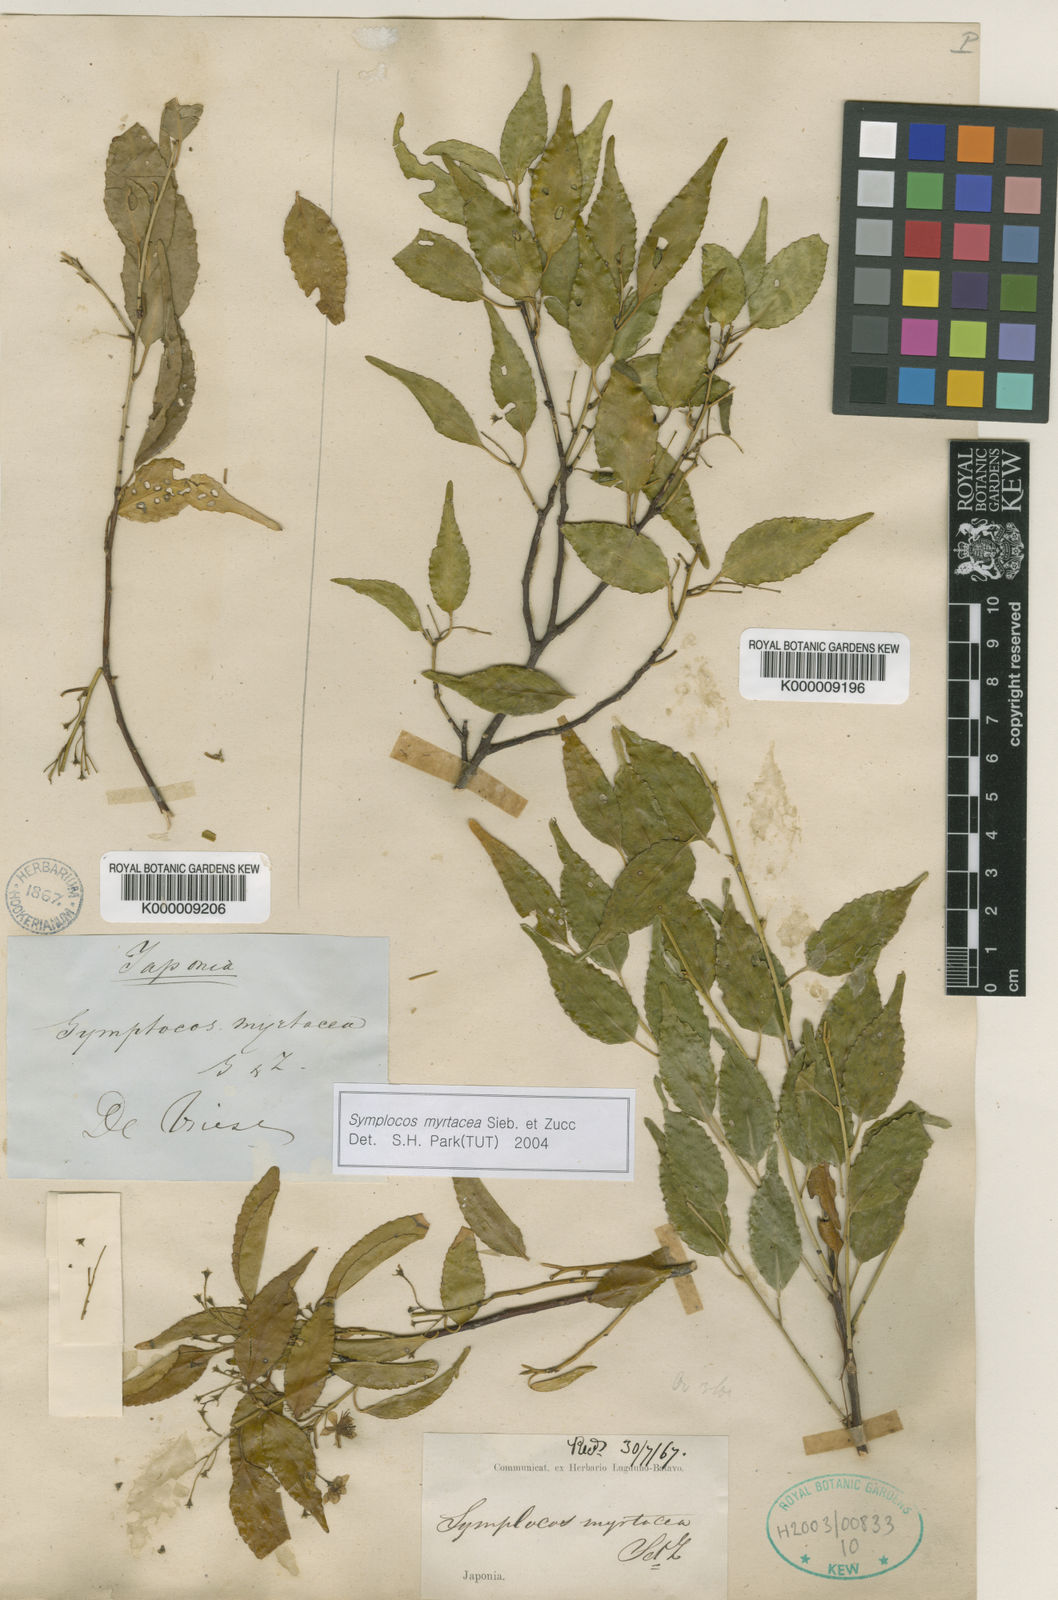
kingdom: Plantae
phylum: Tracheophyta
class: Magnoliopsida
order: Ericales
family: Symplocaceae
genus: Symplocos
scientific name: Symplocos myrtacea
